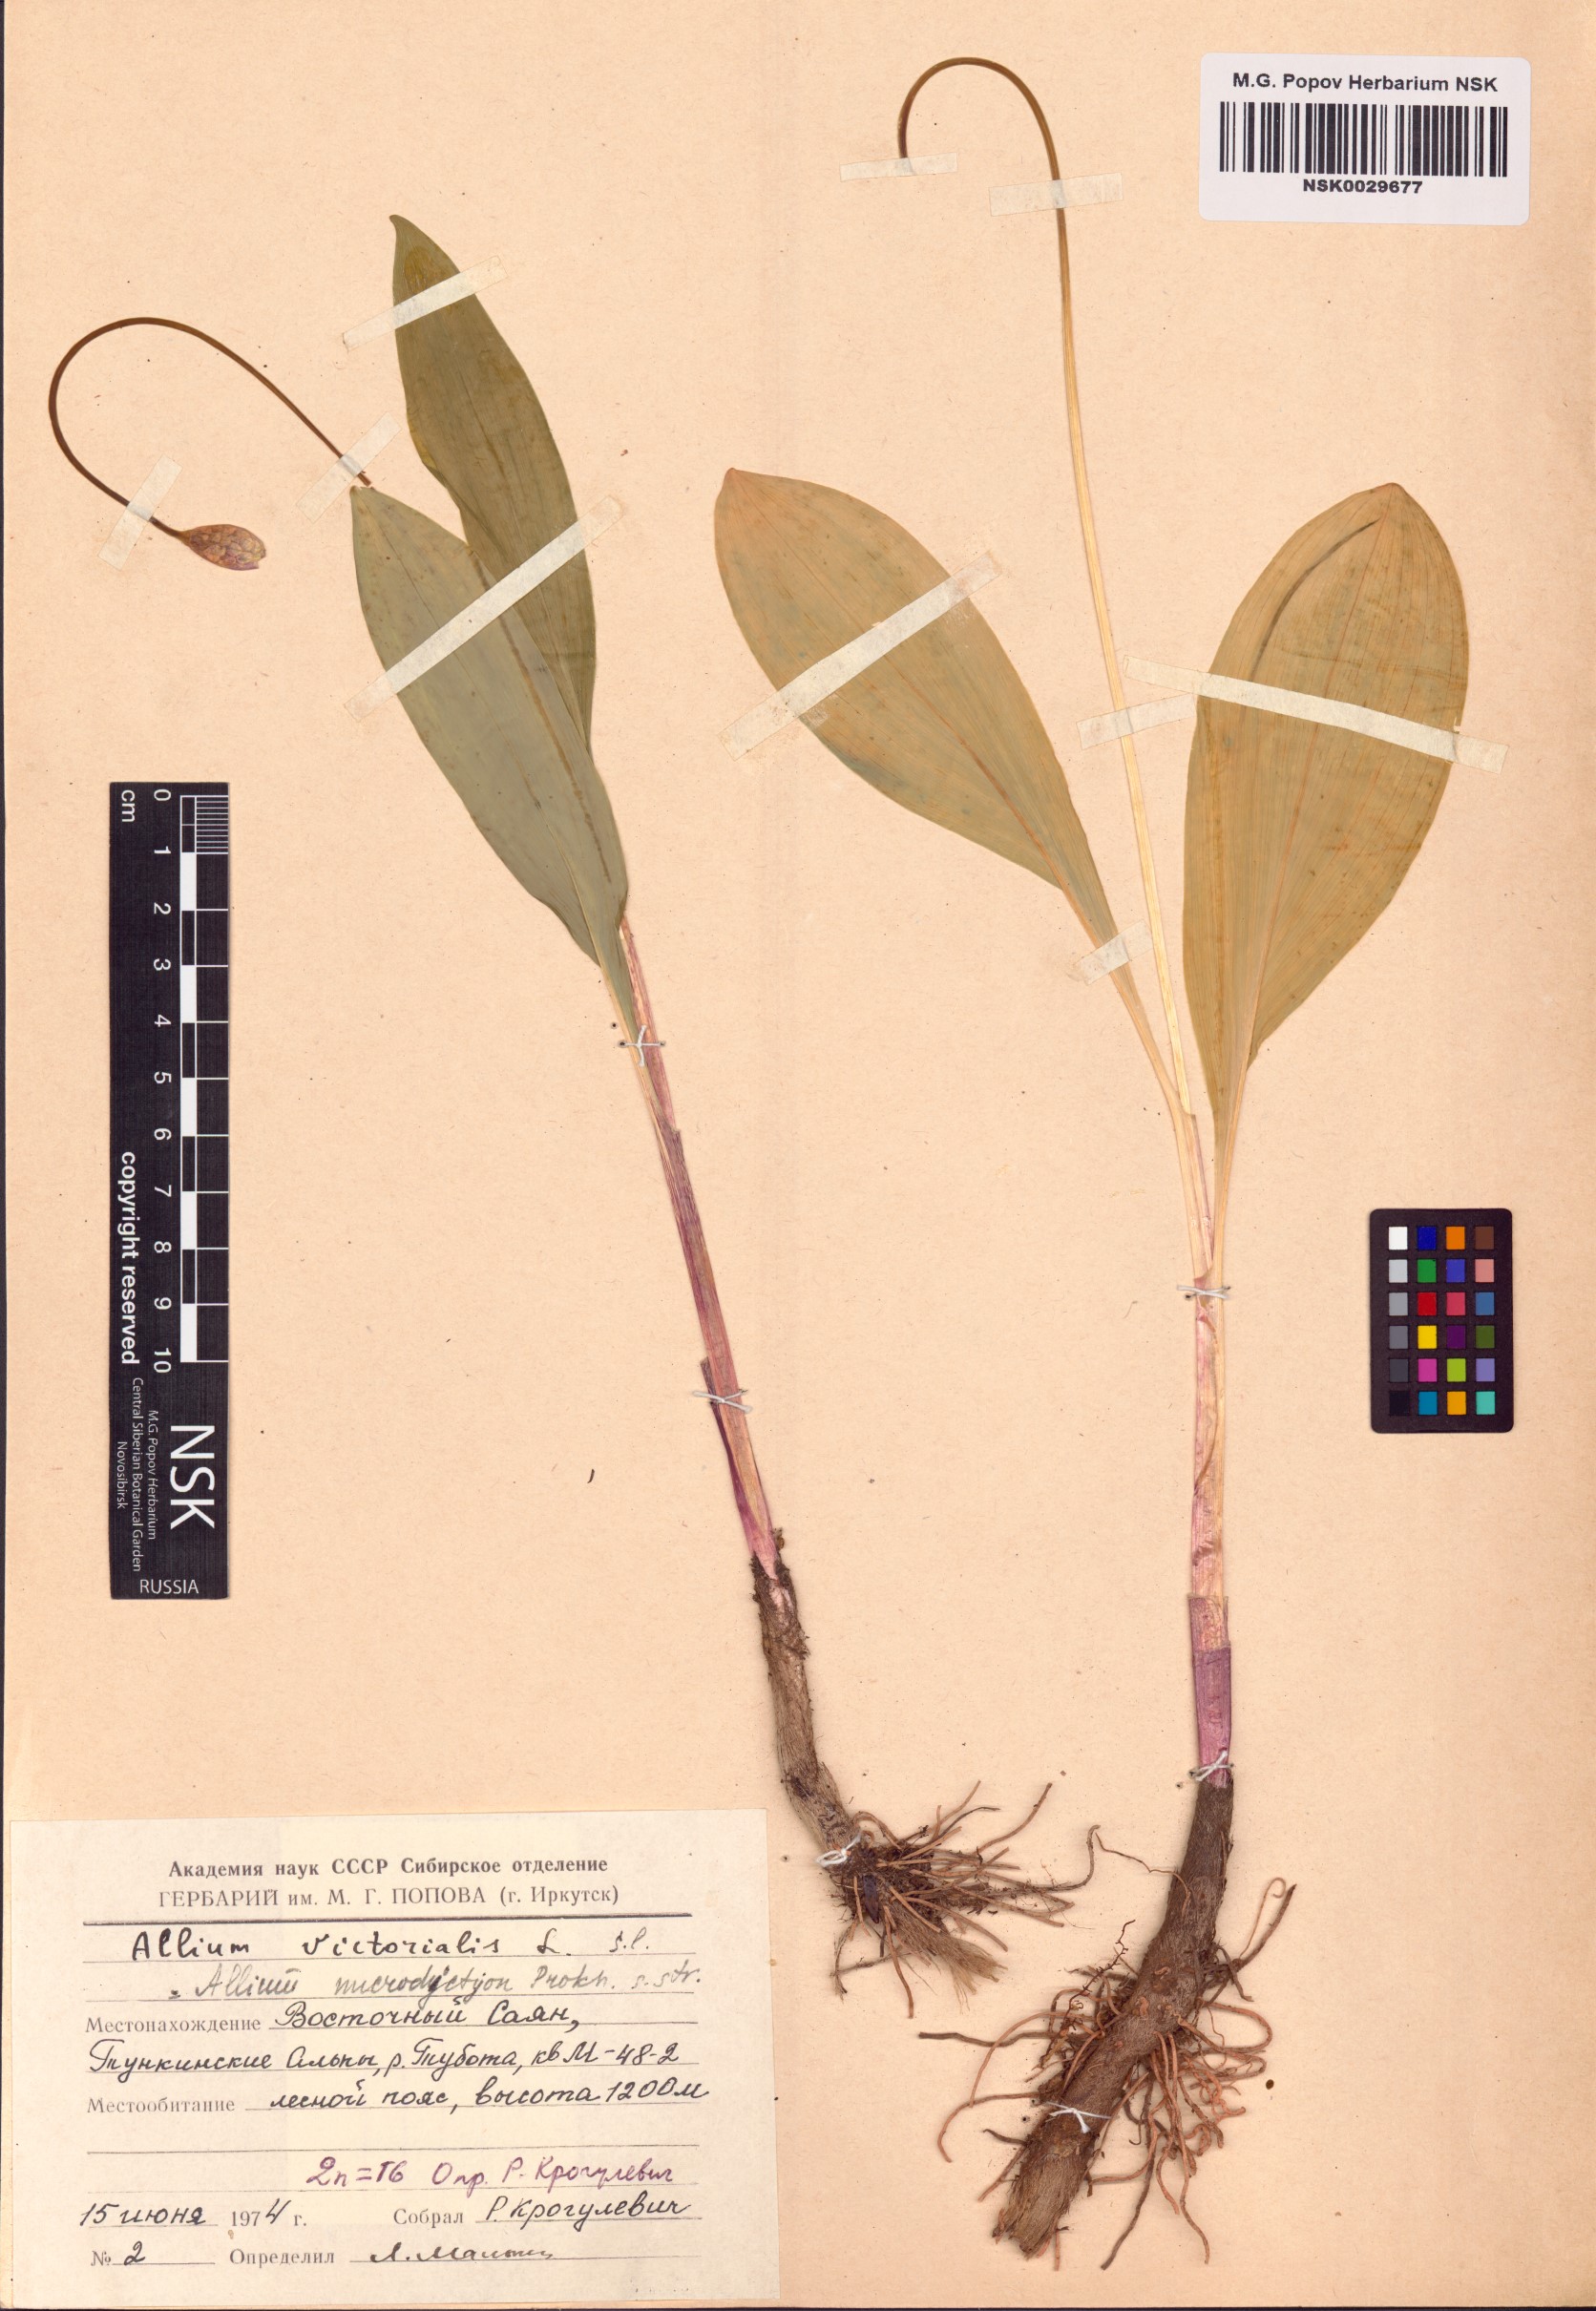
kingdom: Plantae
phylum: Tracheophyta
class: Liliopsida
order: Asparagales
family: Amaryllidaceae
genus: Allium
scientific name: Allium microdictyon
